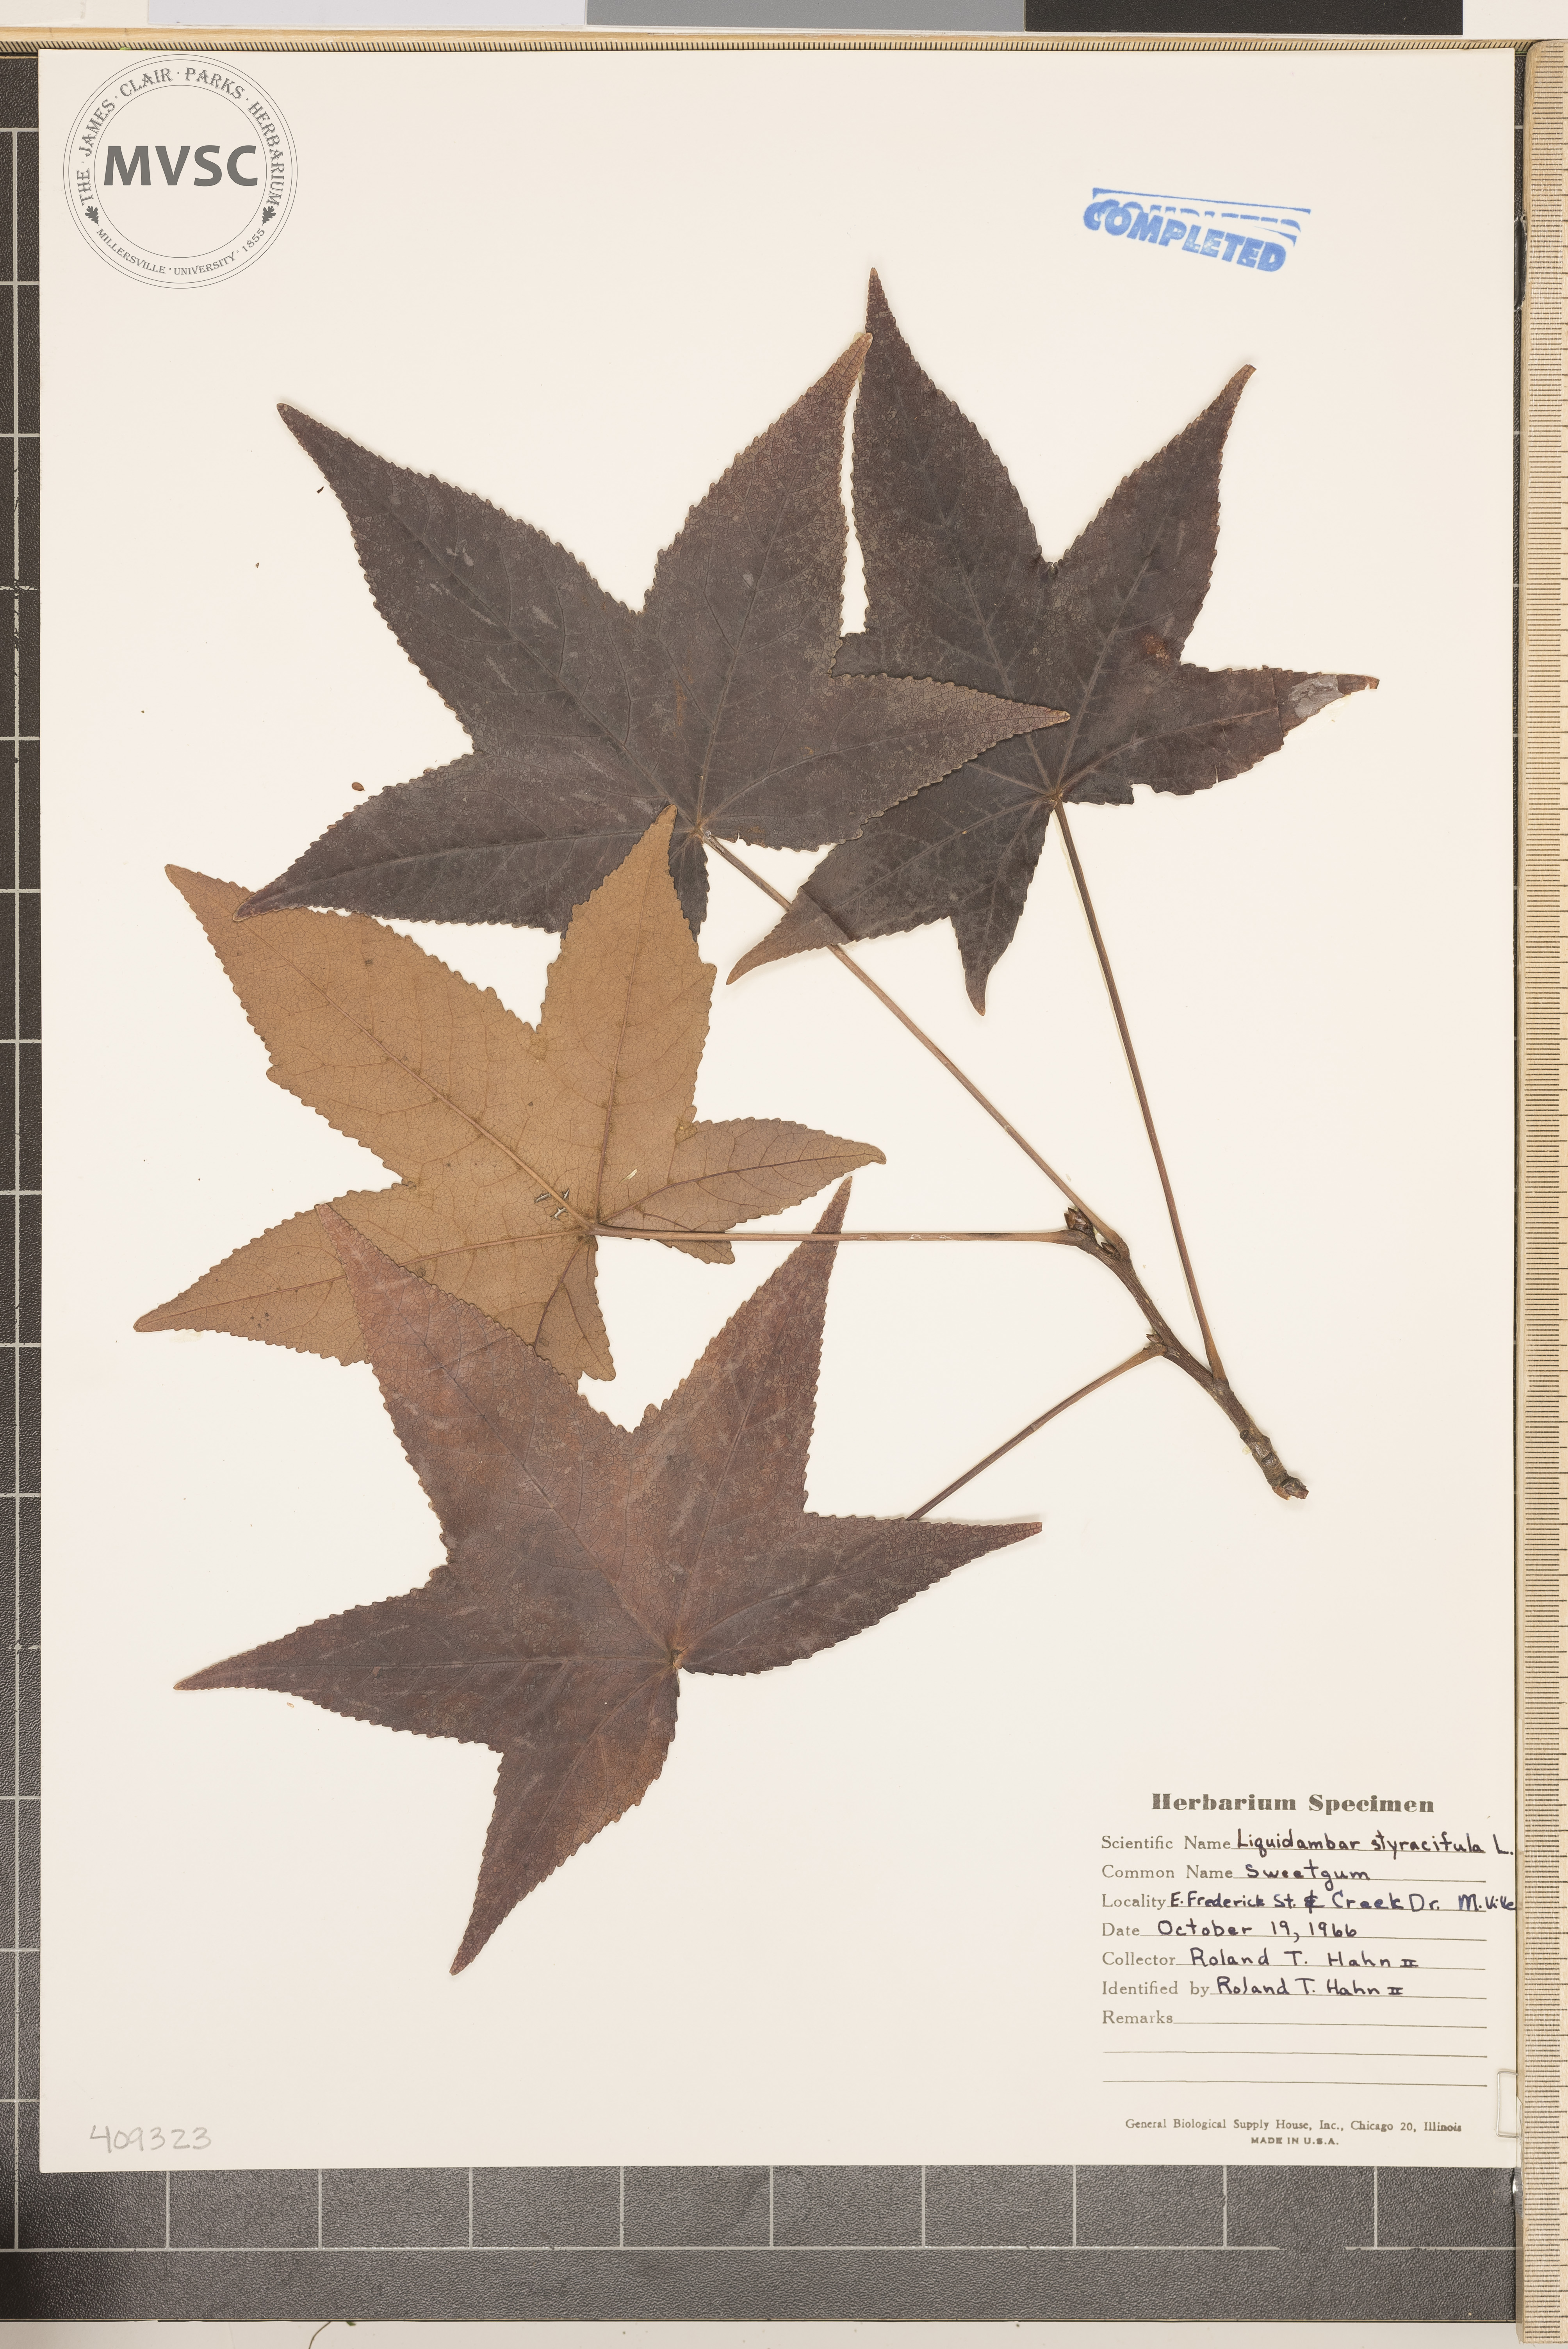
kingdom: Plantae
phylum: Tracheophyta
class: Magnoliopsida
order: Saxifragales
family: Altingiaceae
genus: Liquidambar
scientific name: Liquidambar styraciflua
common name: Sweet gum
